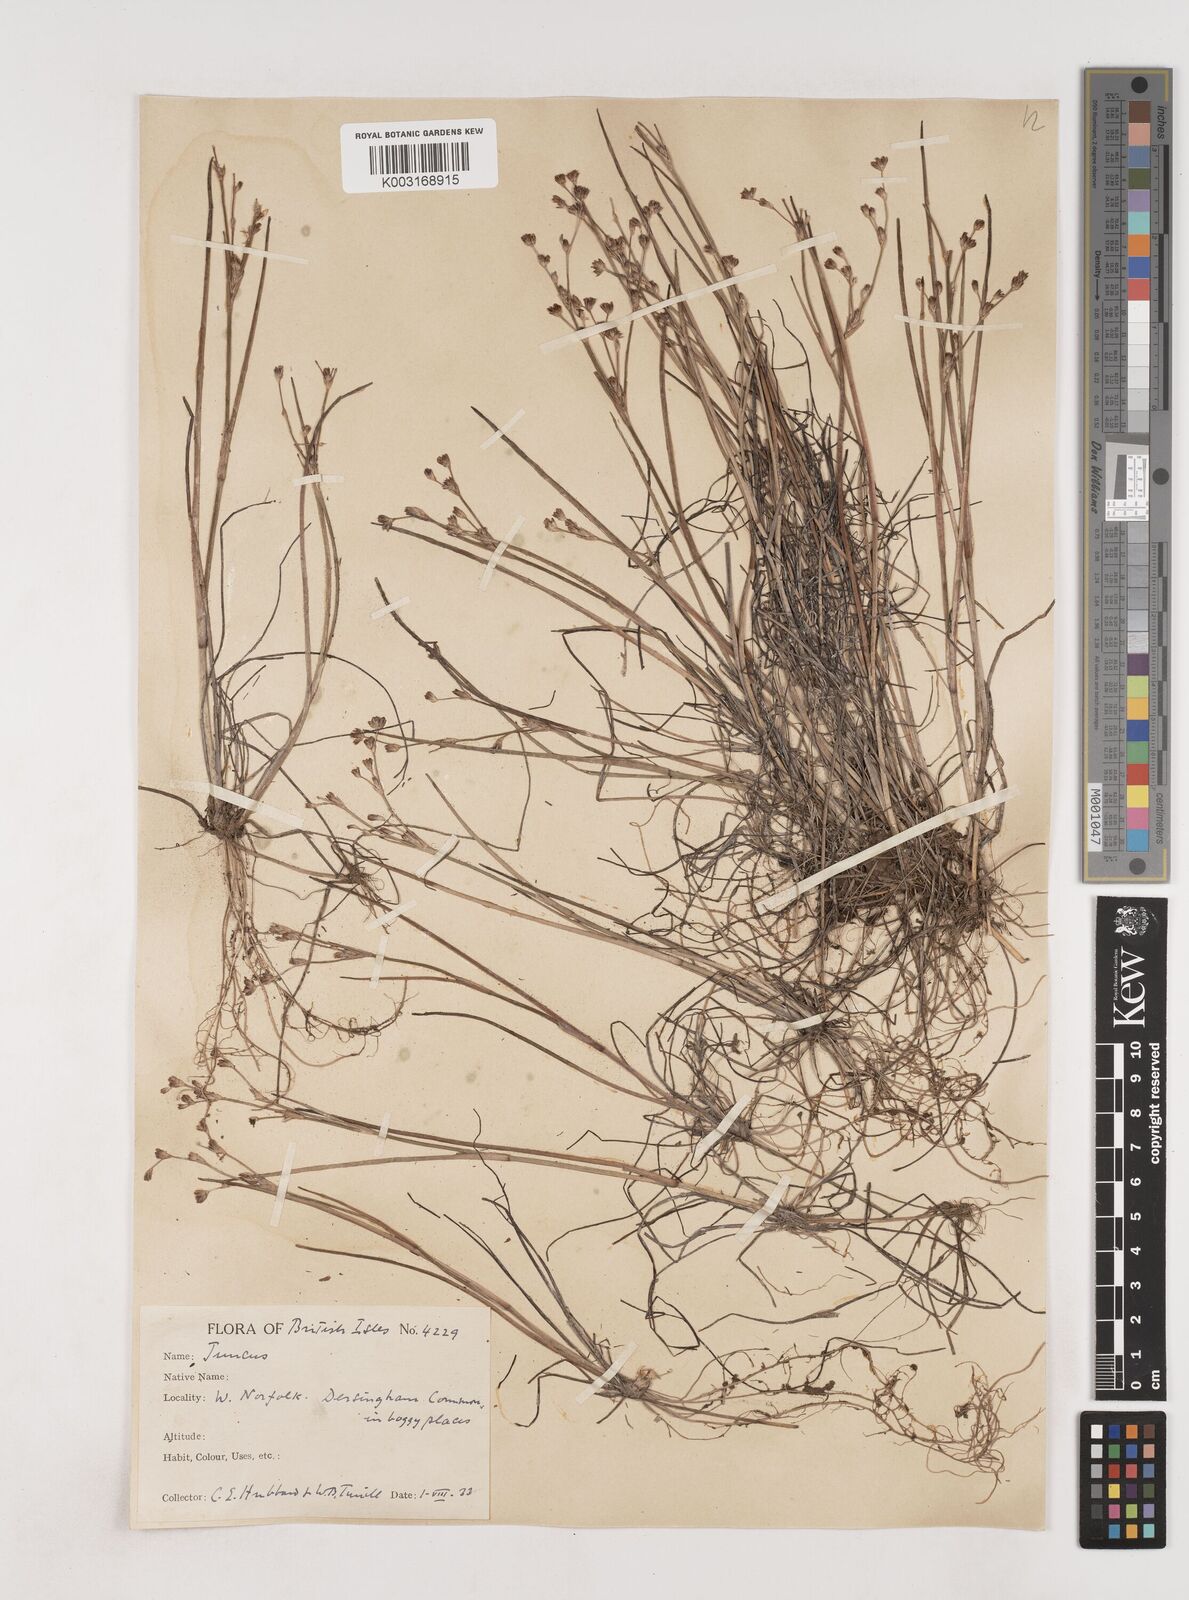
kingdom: Plantae
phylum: Tracheophyta
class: Liliopsida
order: Poales
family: Juncaceae
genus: Juncus
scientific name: Juncus bulbosus
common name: Bulbous rush
